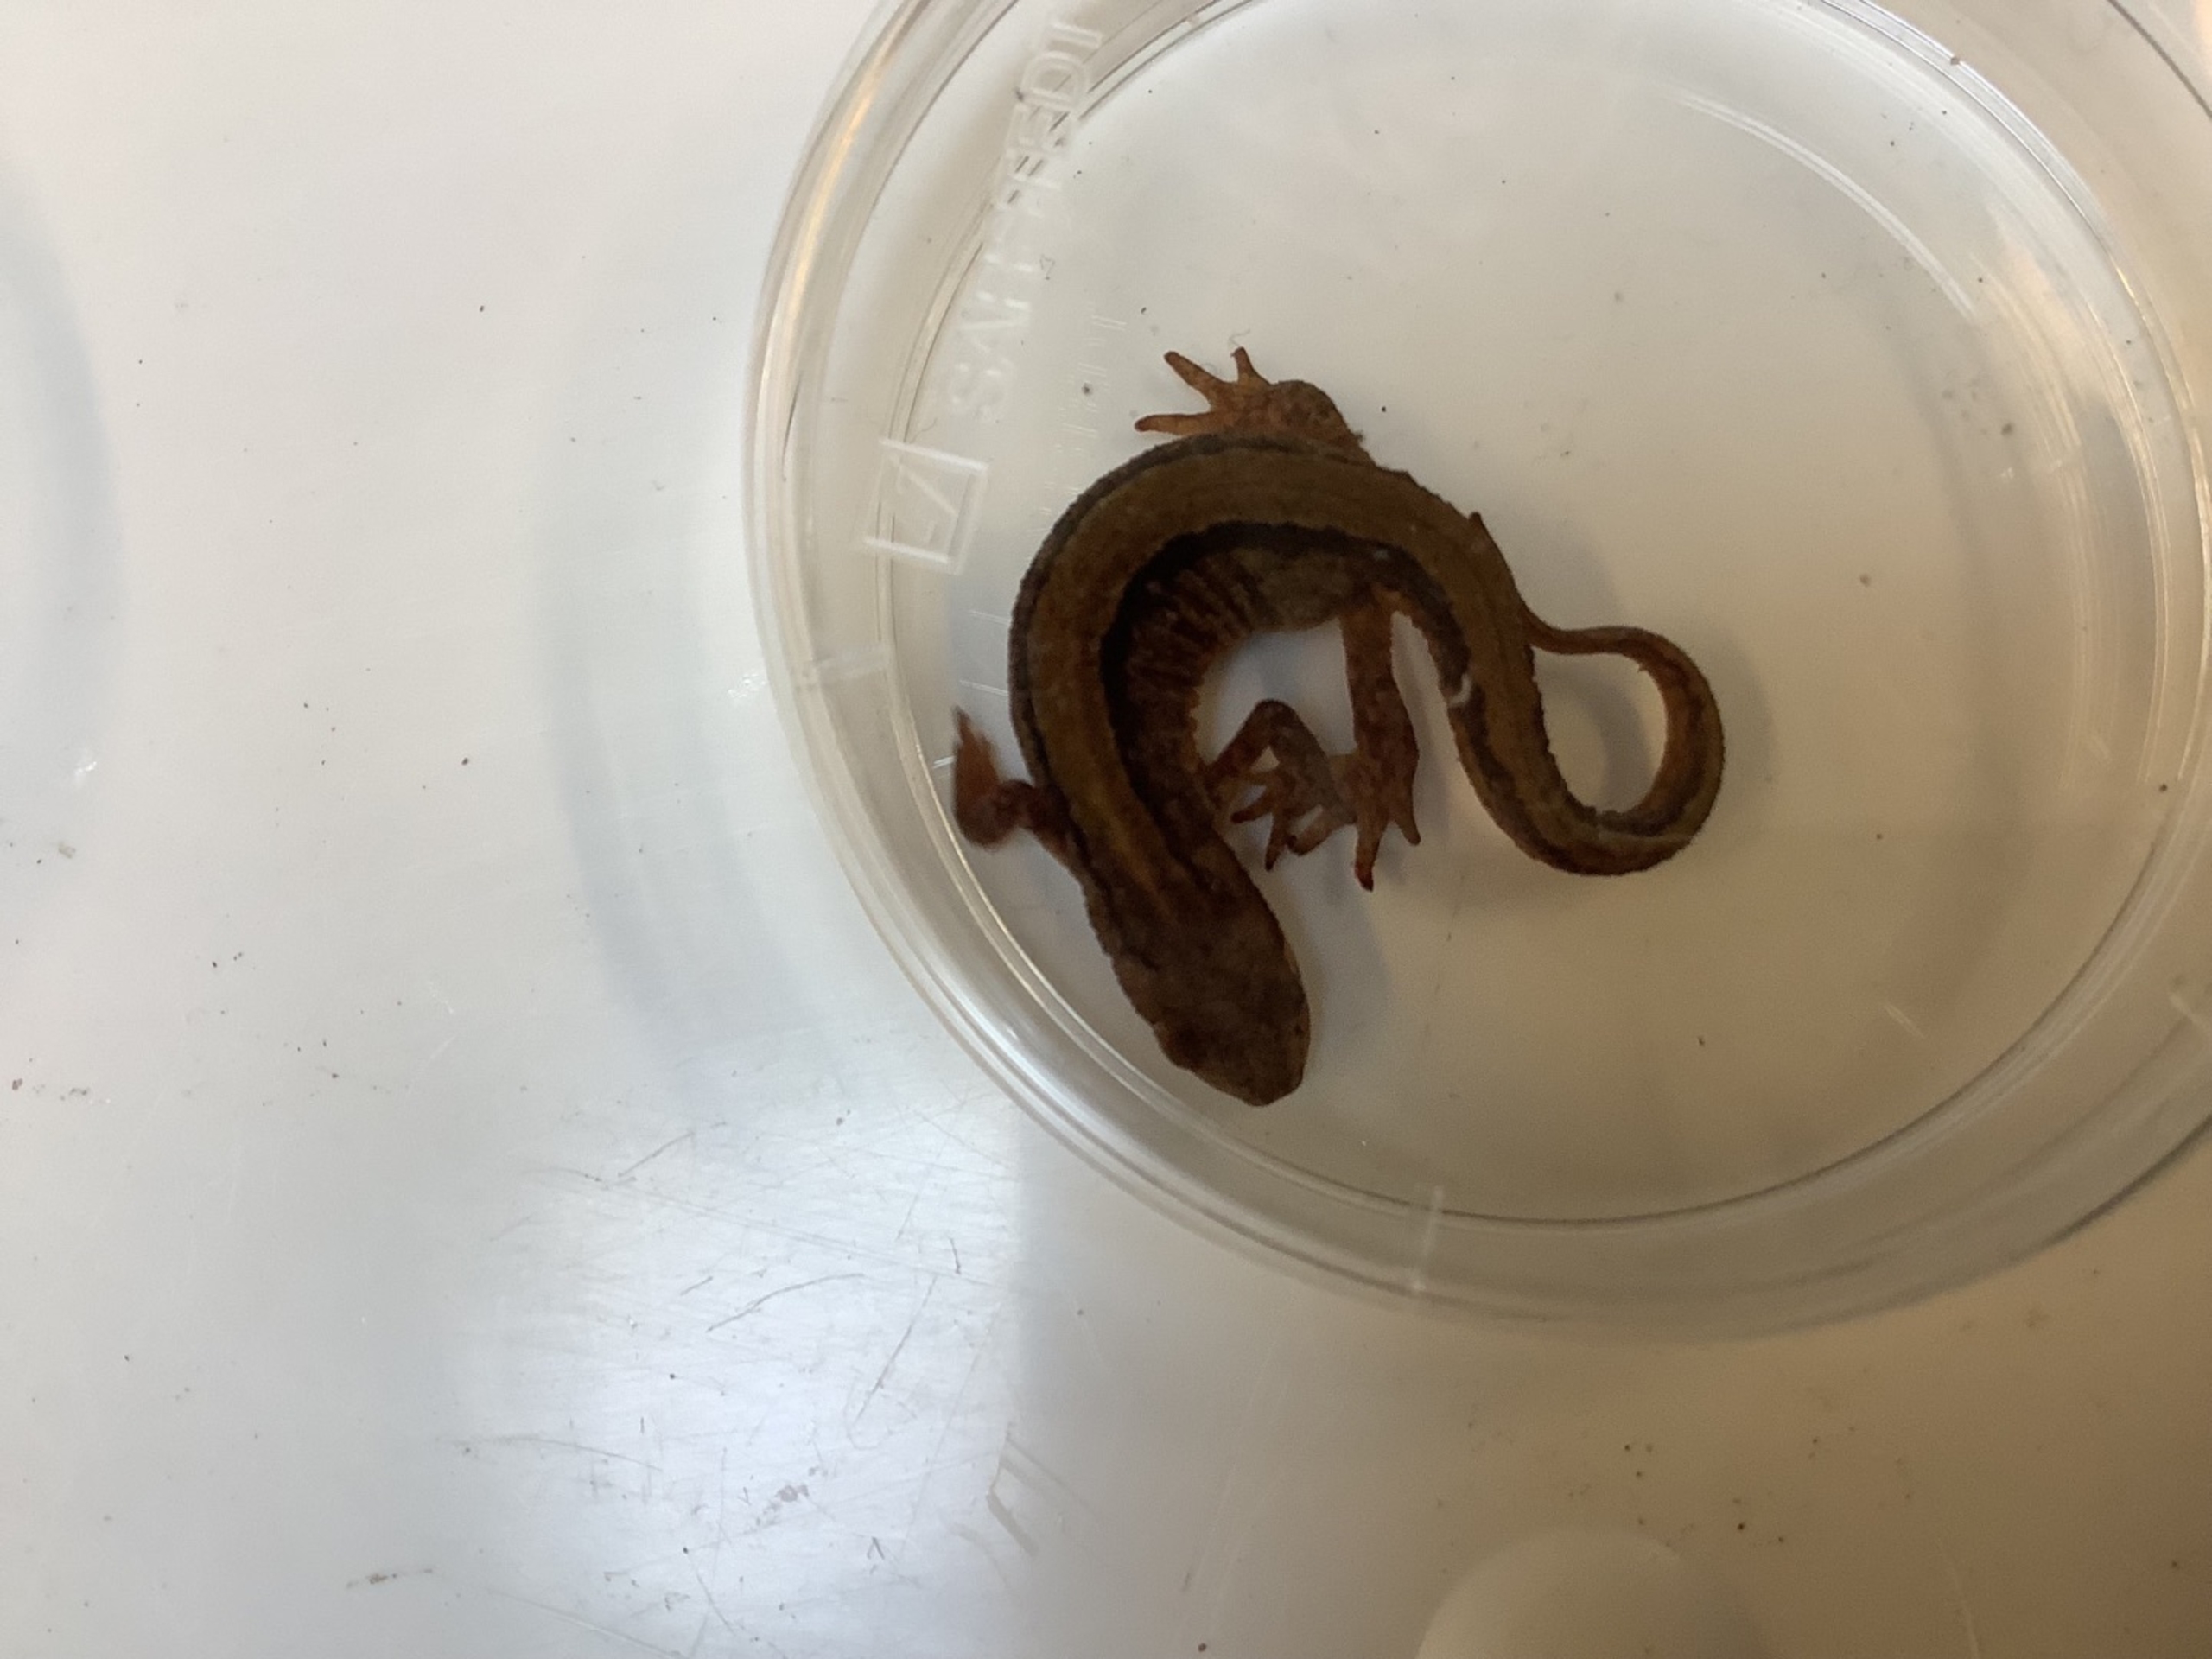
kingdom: Animalia
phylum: Chordata
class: Amphibia
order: Caudata
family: Salamandridae
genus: Lissotriton
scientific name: Lissotriton vulgaris
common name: Lille vandsalamander
